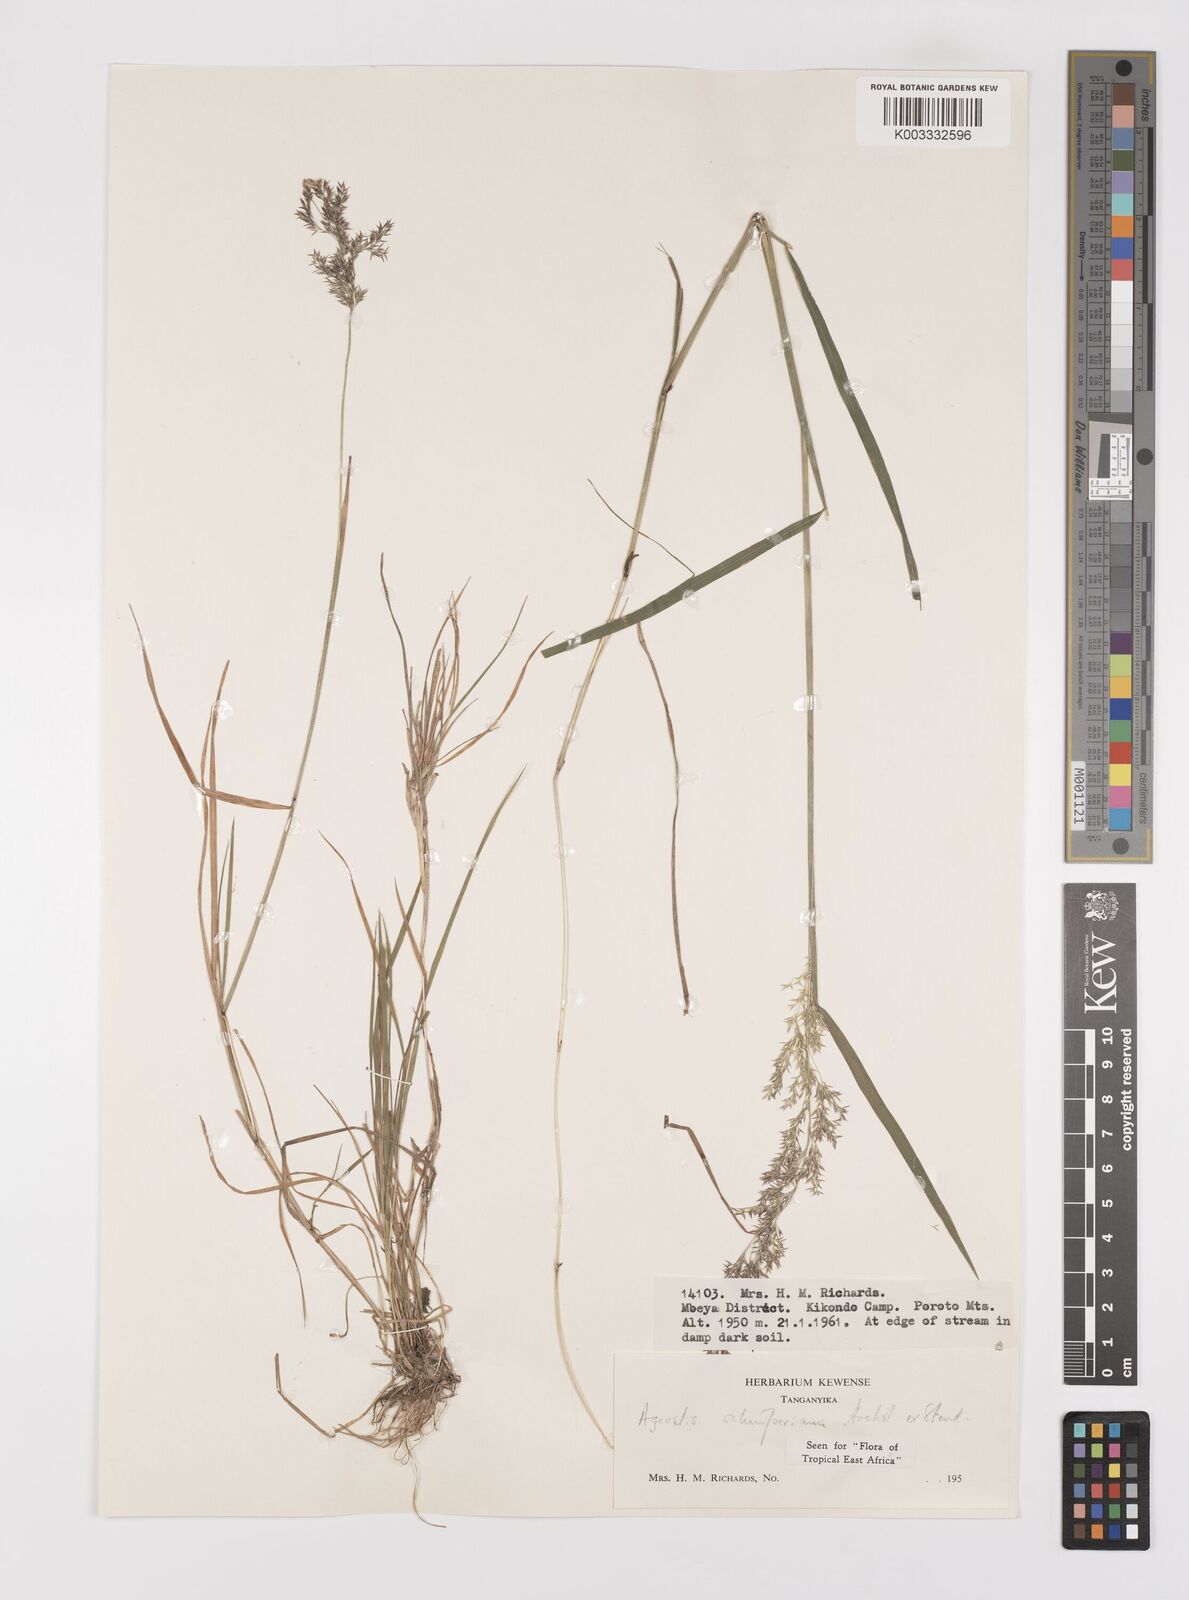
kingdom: Plantae
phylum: Tracheophyta
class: Liliopsida
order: Poales
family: Poaceae
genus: Polypogon
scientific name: Polypogon schimperianus
